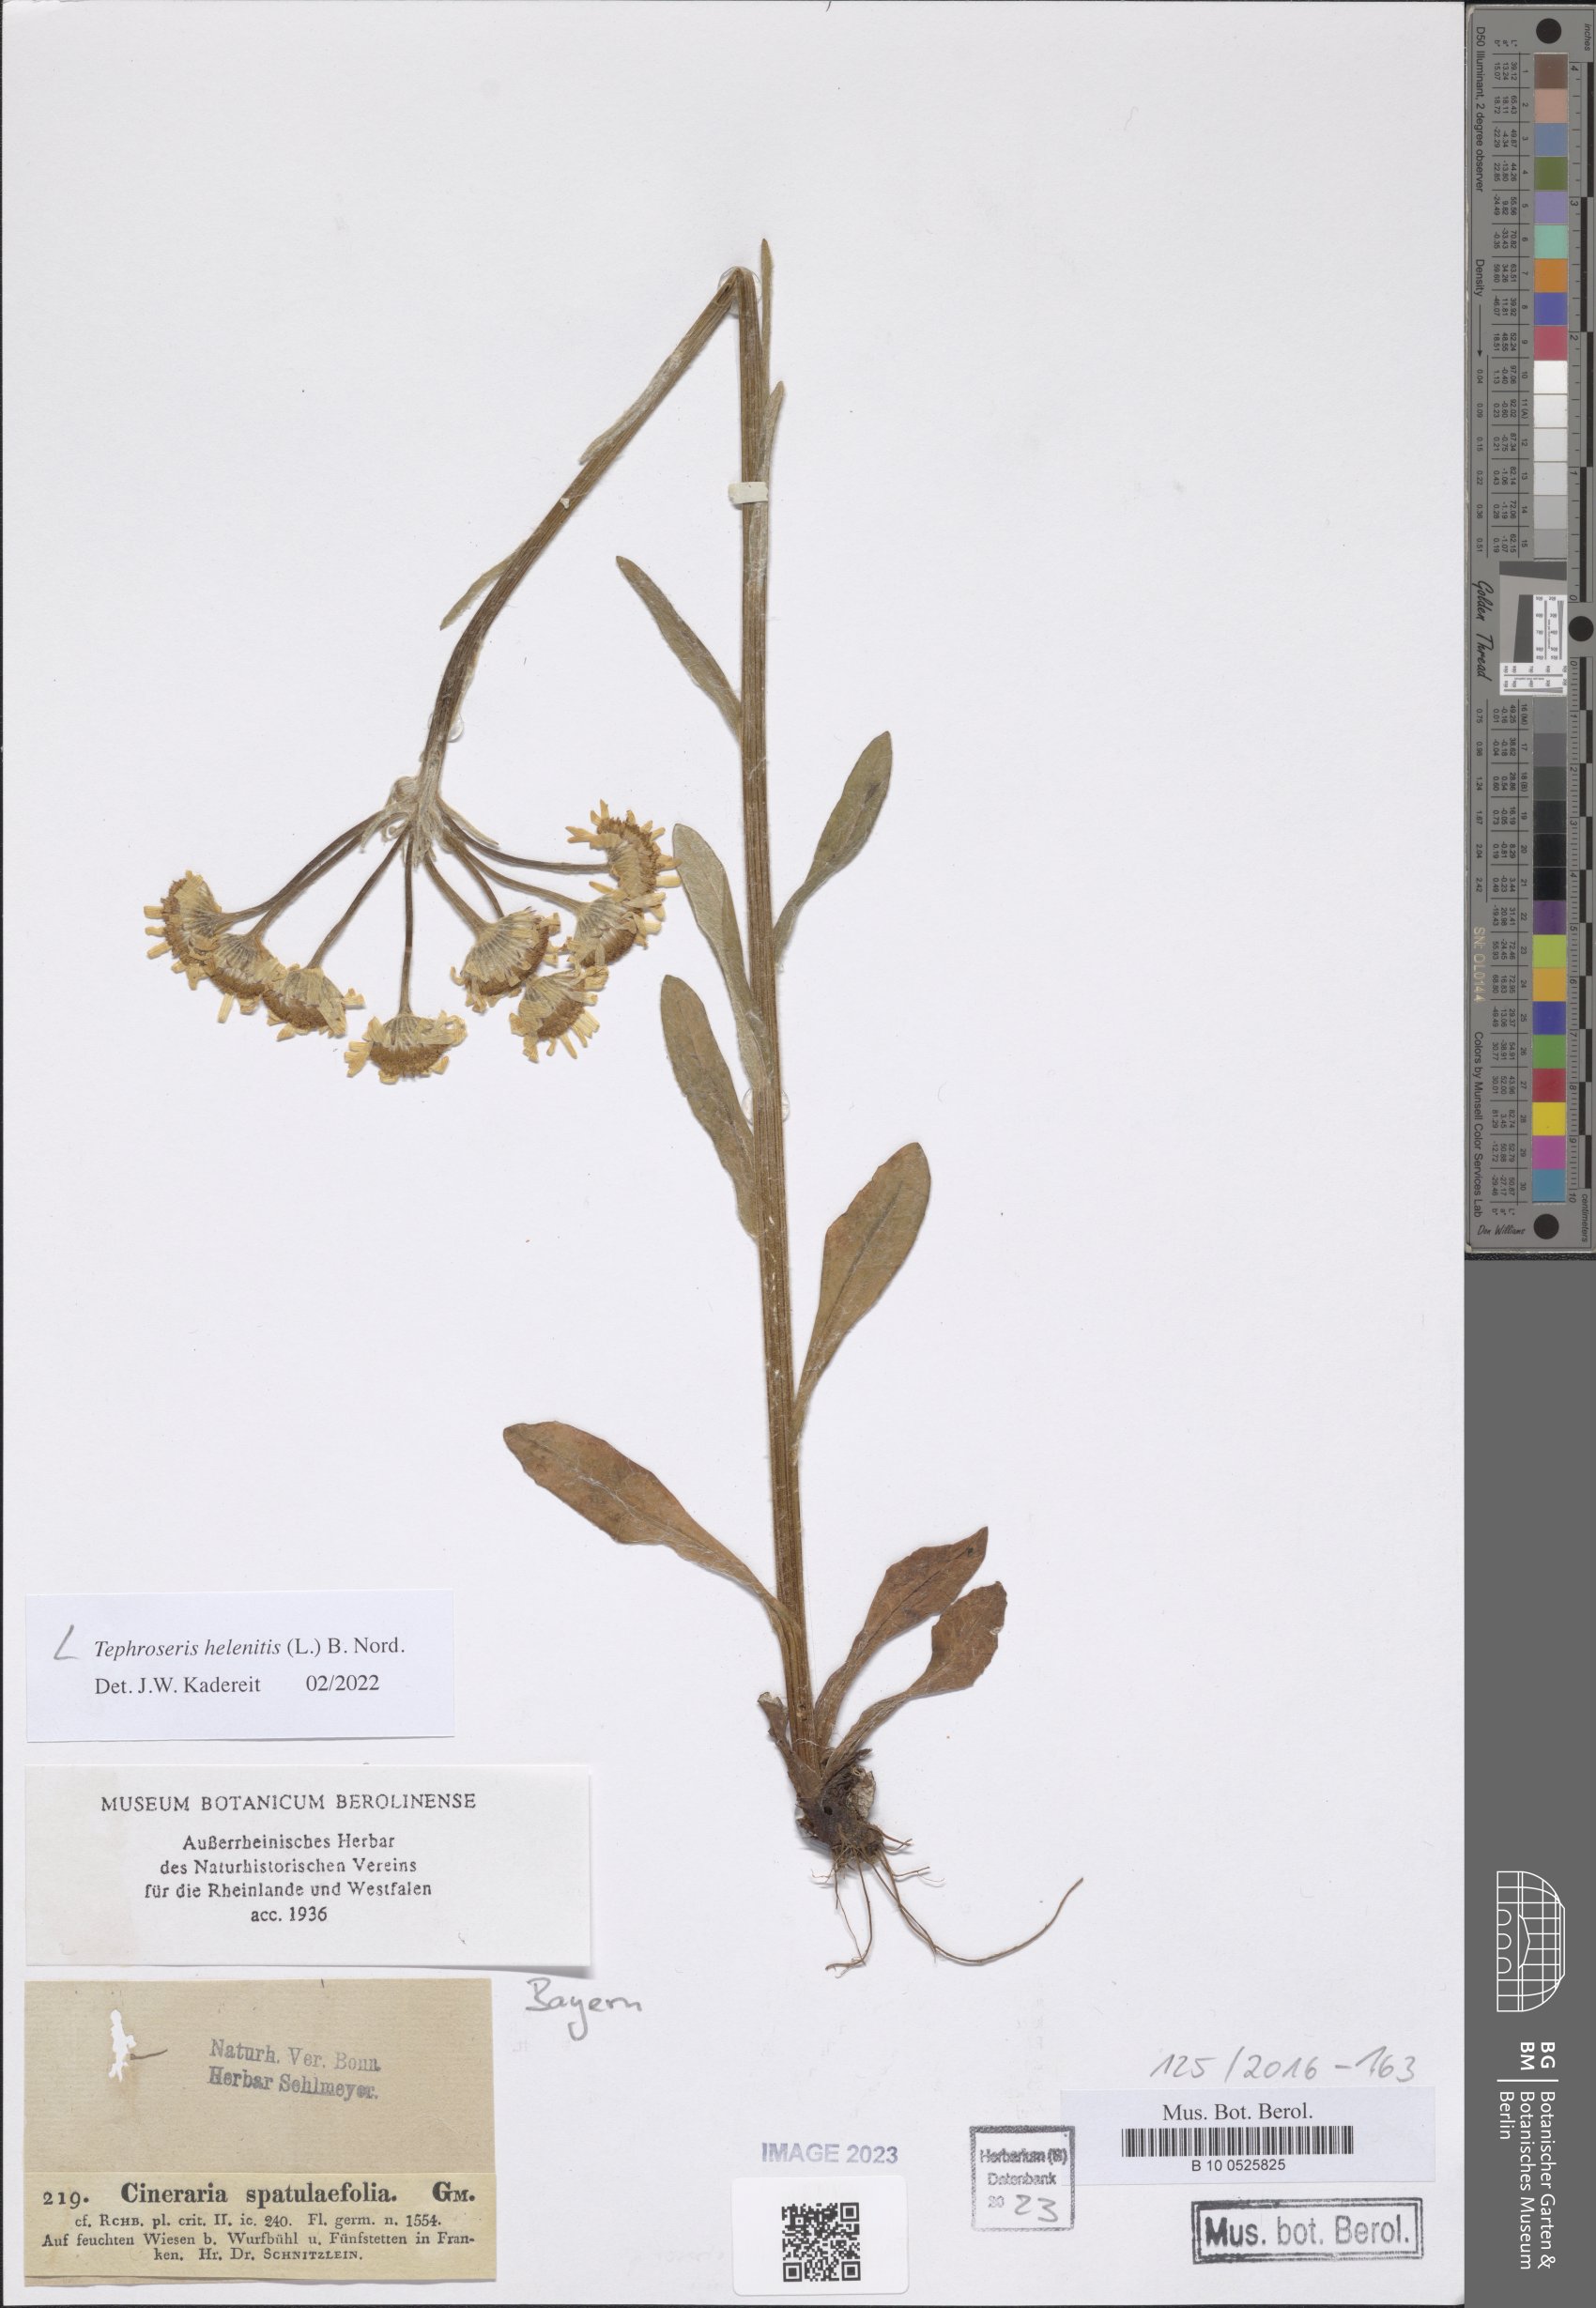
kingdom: Plantae
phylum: Tracheophyta
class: Magnoliopsida
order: Asterales
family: Asteraceae
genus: Tephroseris
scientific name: Tephroseris helenitis
